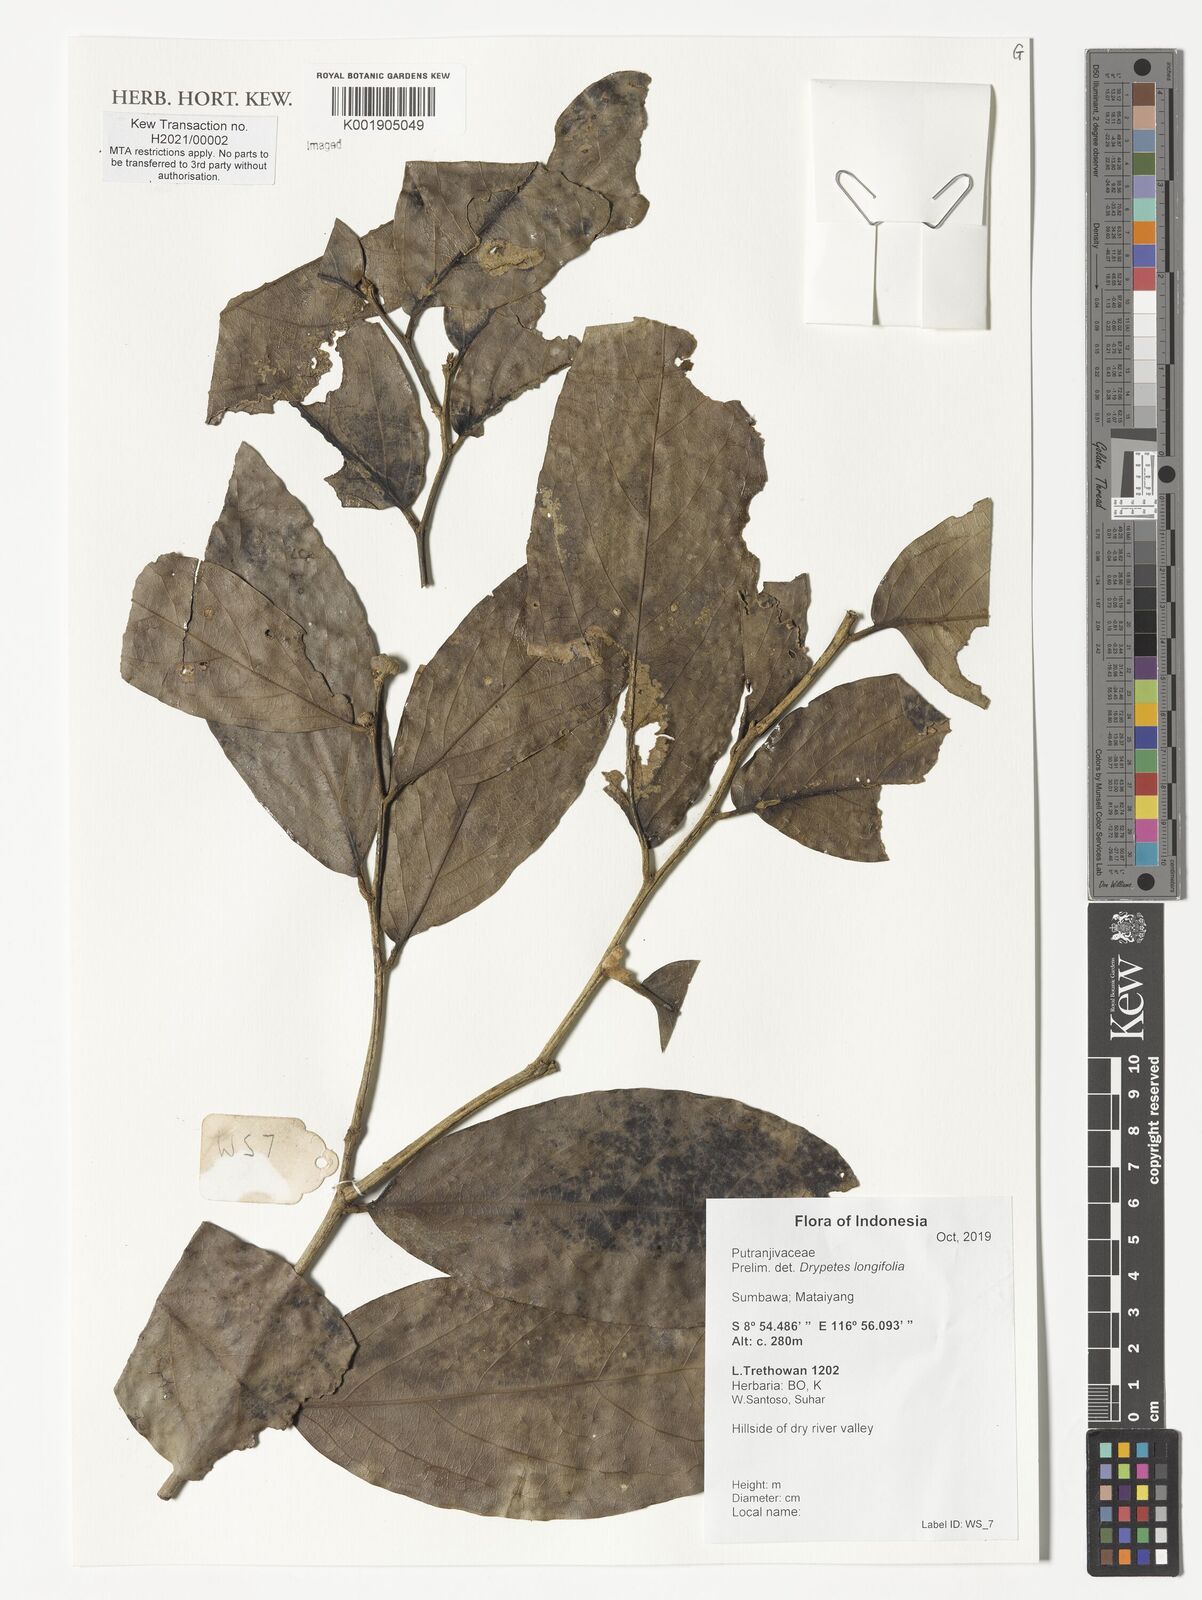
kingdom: Plantae
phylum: Tracheophyta
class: Magnoliopsida
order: Malpighiales
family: Putranjivaceae
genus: Drypetes
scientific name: Drypetes longifolia
